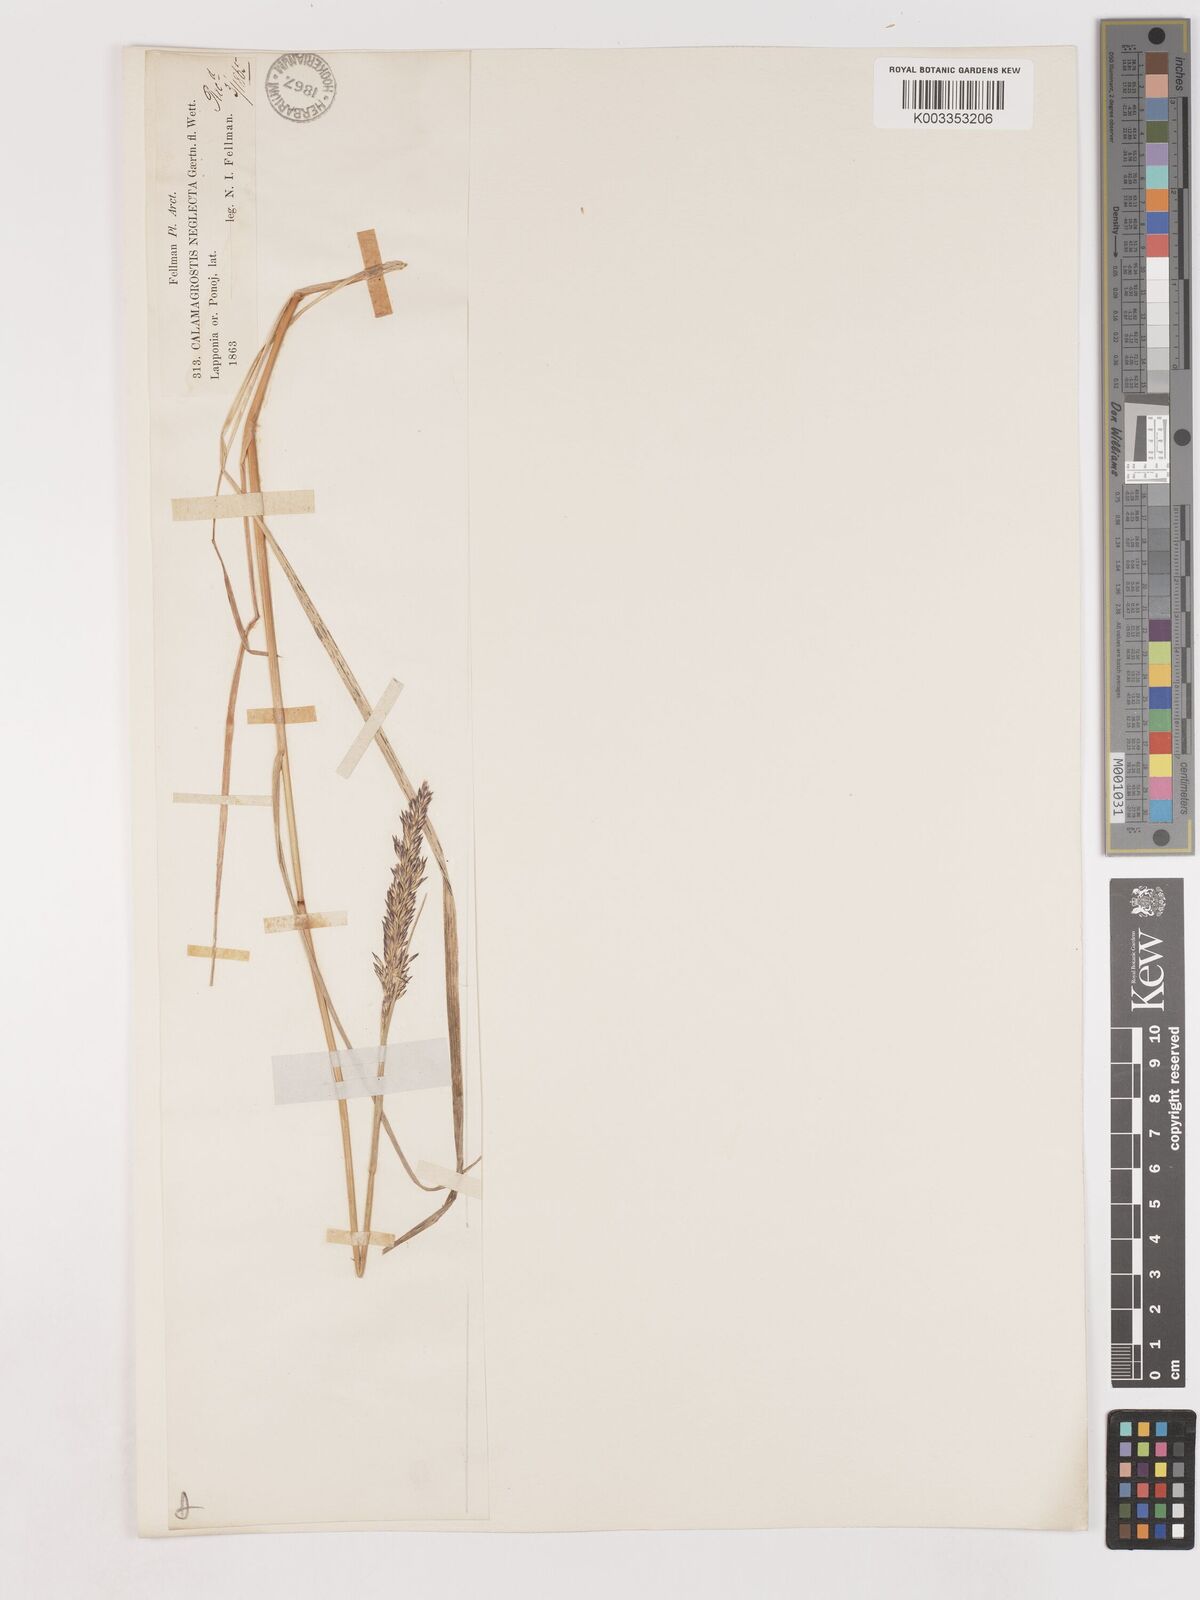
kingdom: Plantae
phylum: Tracheophyta
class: Liliopsida
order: Poales
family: Poaceae
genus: Cinnagrostis
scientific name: Cinnagrostis recta
